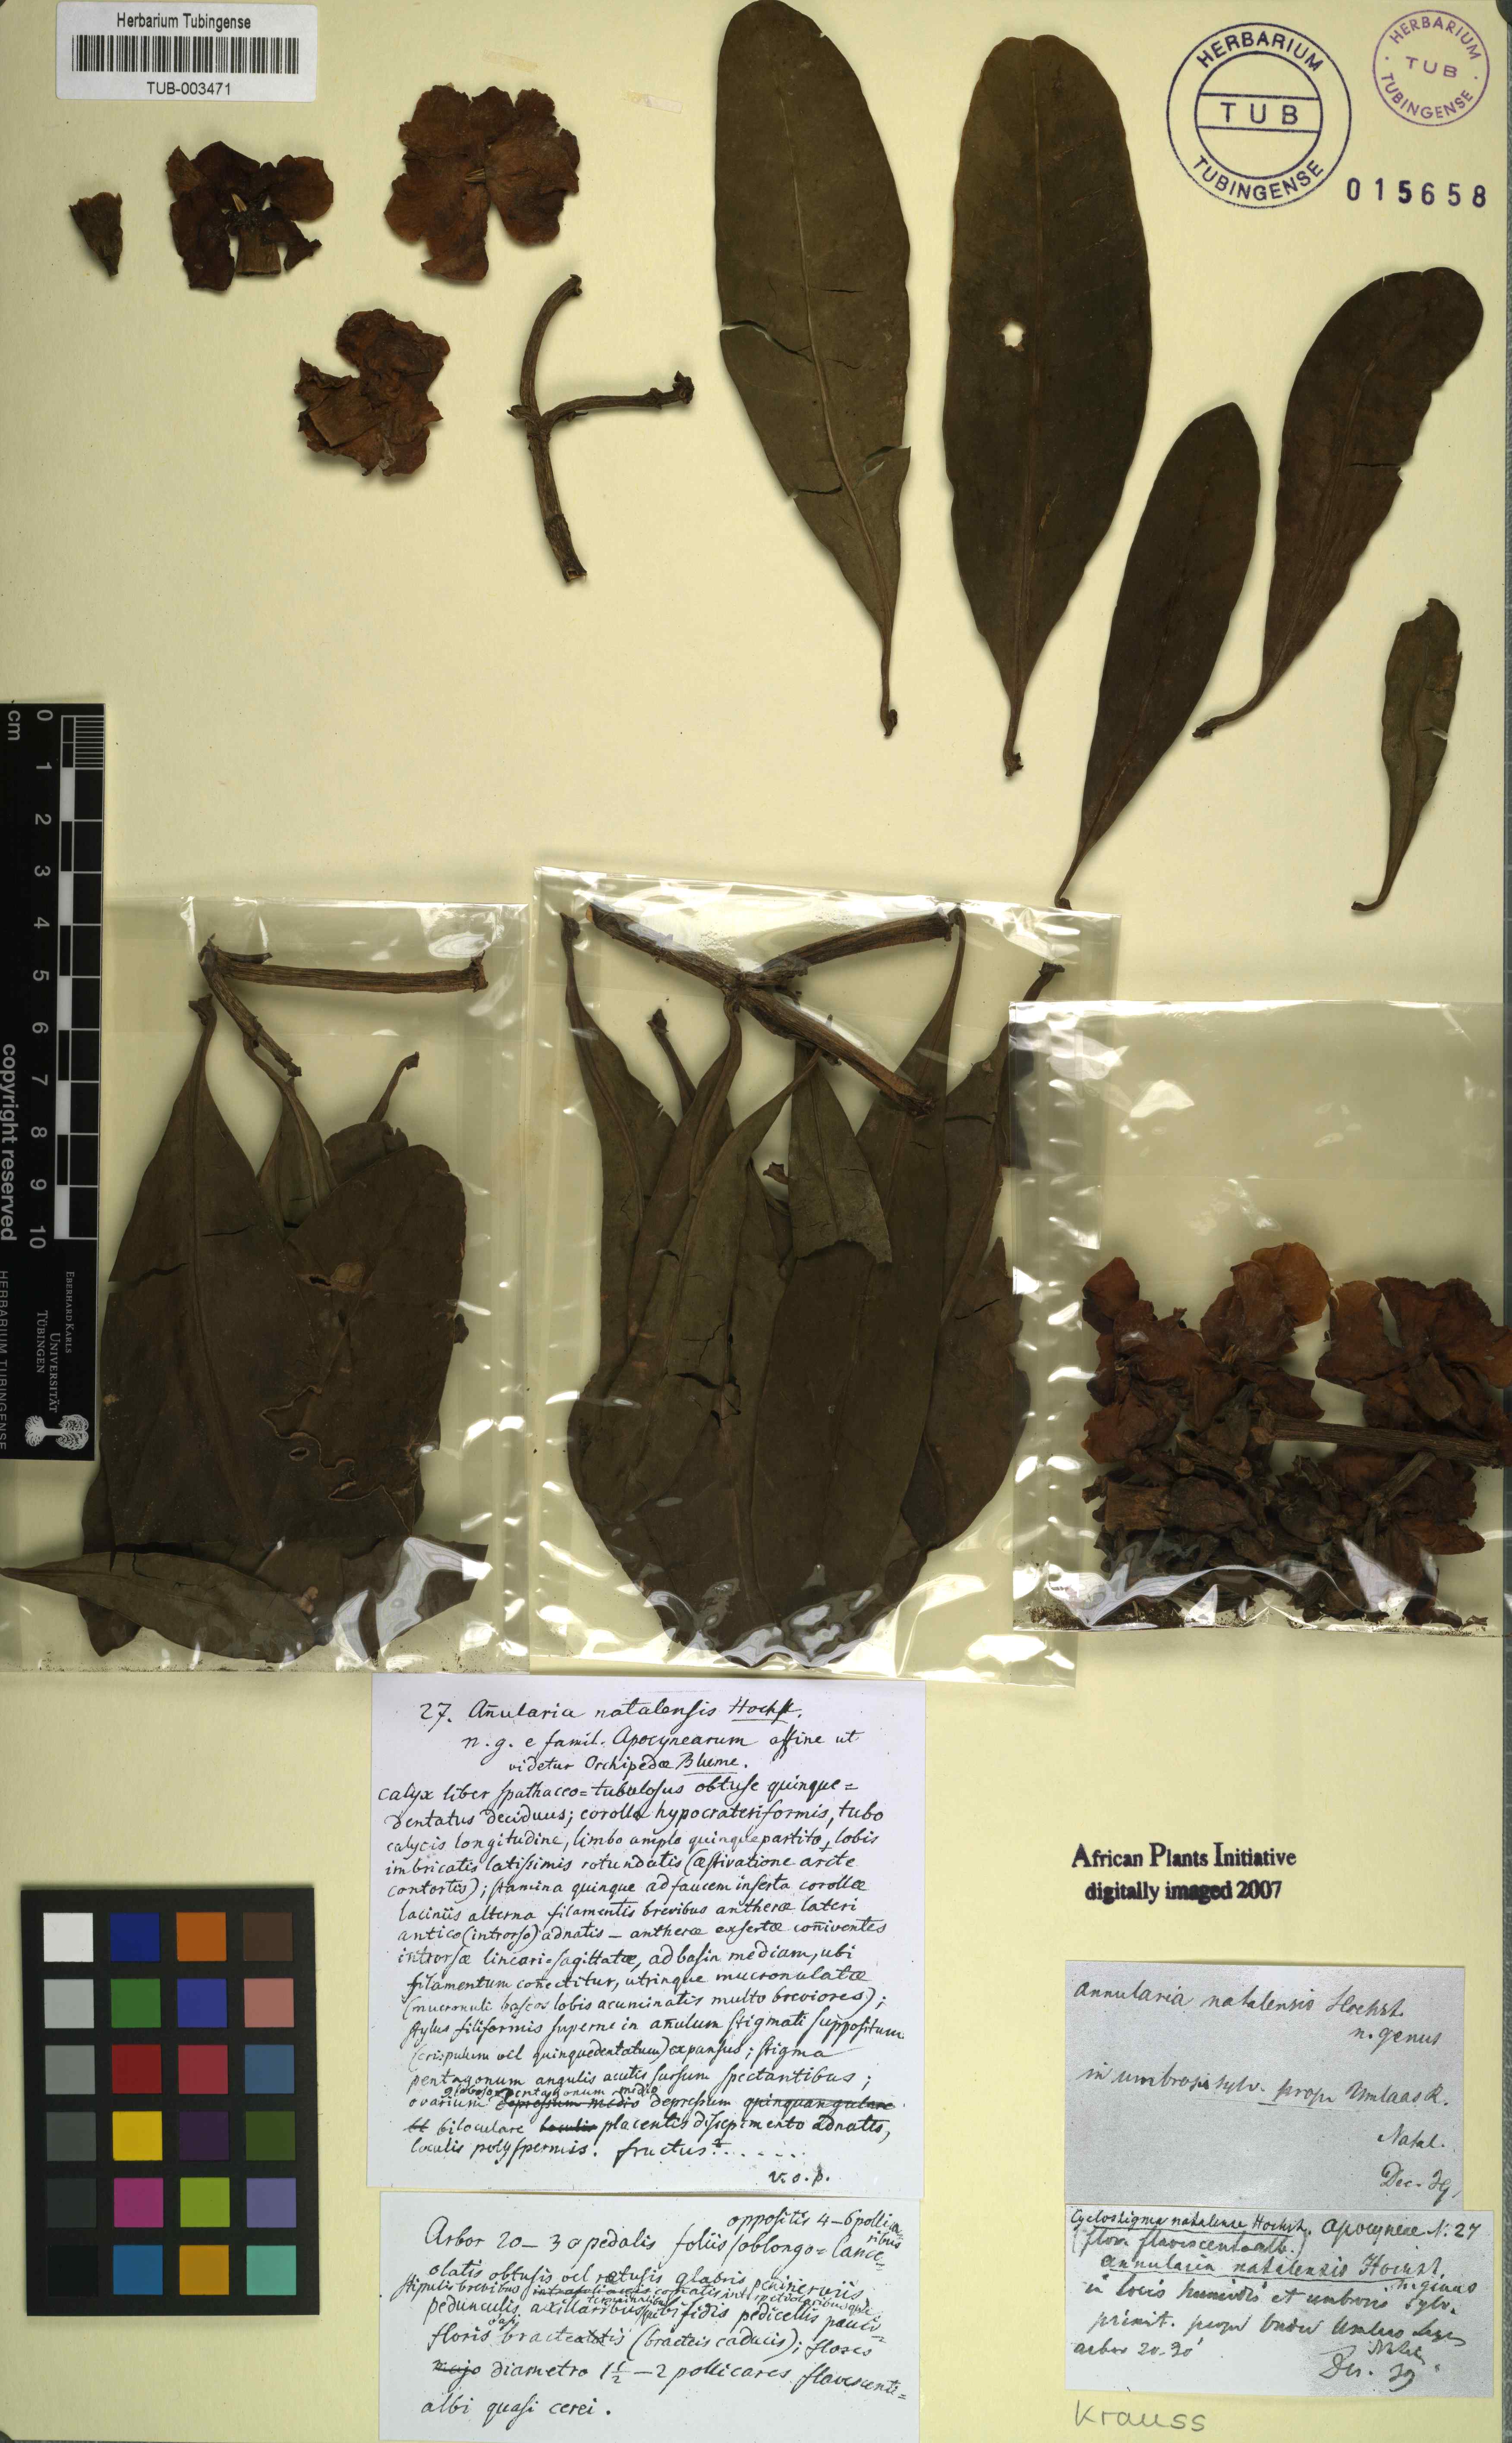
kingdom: Plantae
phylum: Tracheophyta
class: Magnoliopsida
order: Gentianales
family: Apocynaceae
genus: Voacanga
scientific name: Voacanga thouarsii
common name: Wild frangipani
